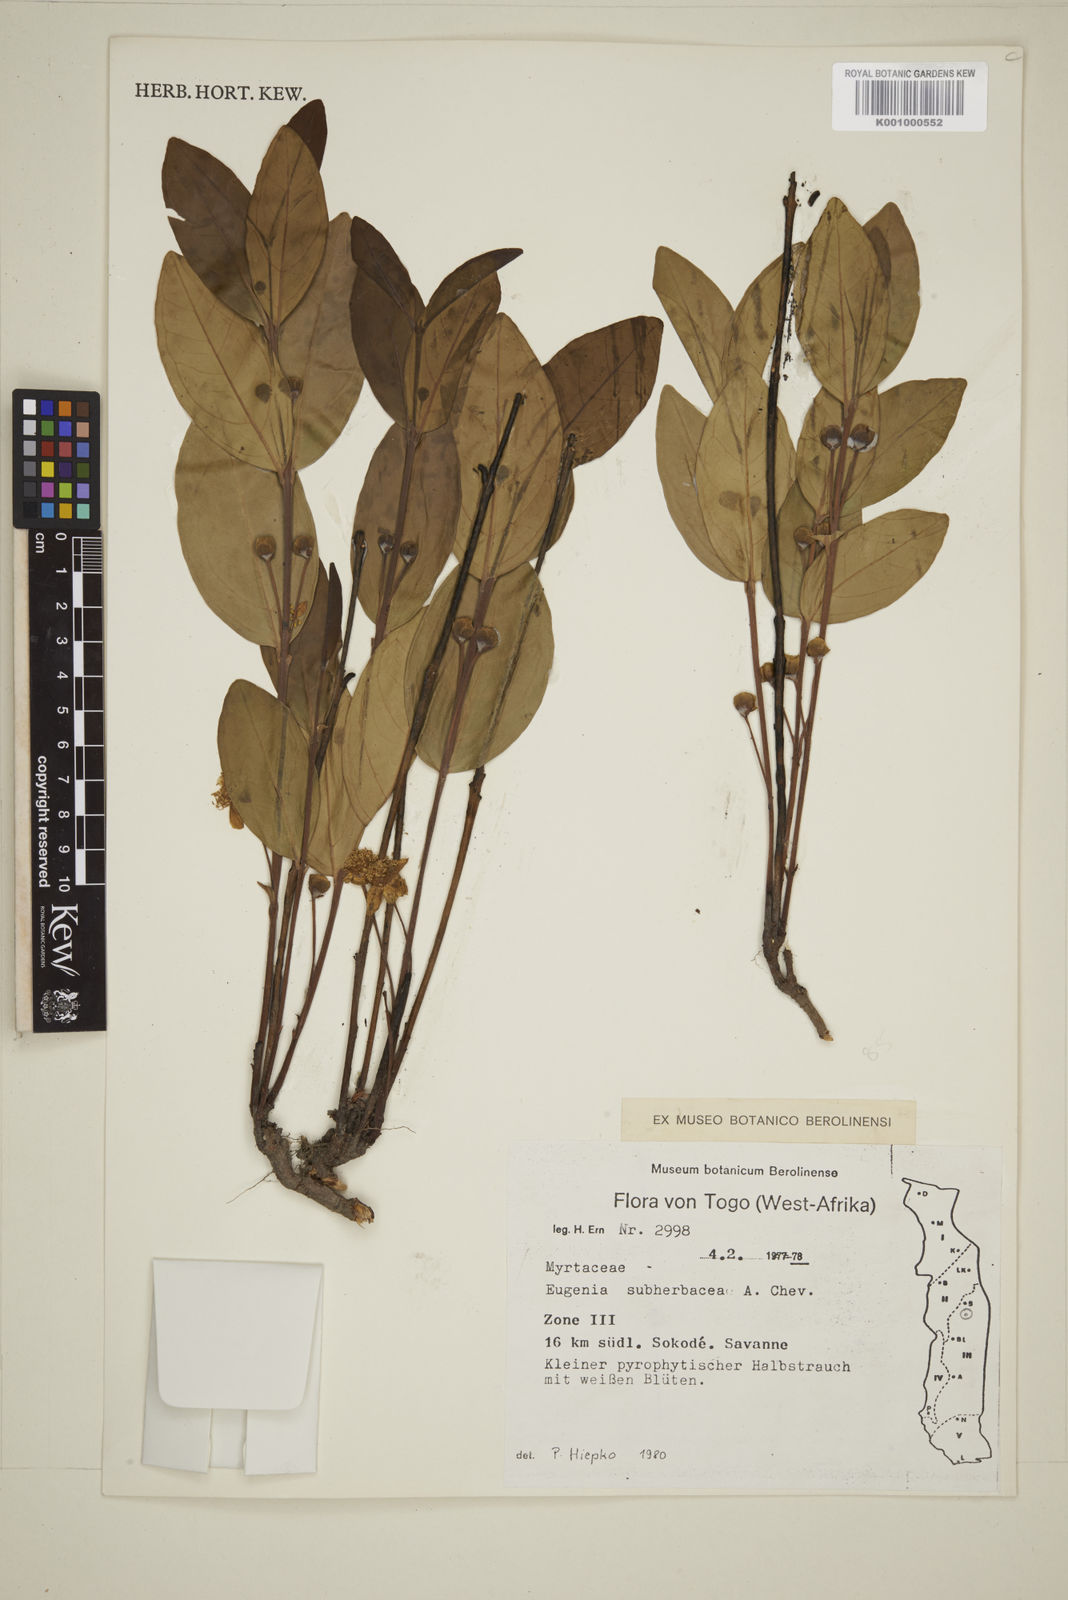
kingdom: Plantae
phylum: Tracheophyta
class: Magnoliopsida
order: Myrtales
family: Myrtaceae
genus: Eugenia
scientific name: Eugenia subherbacea
